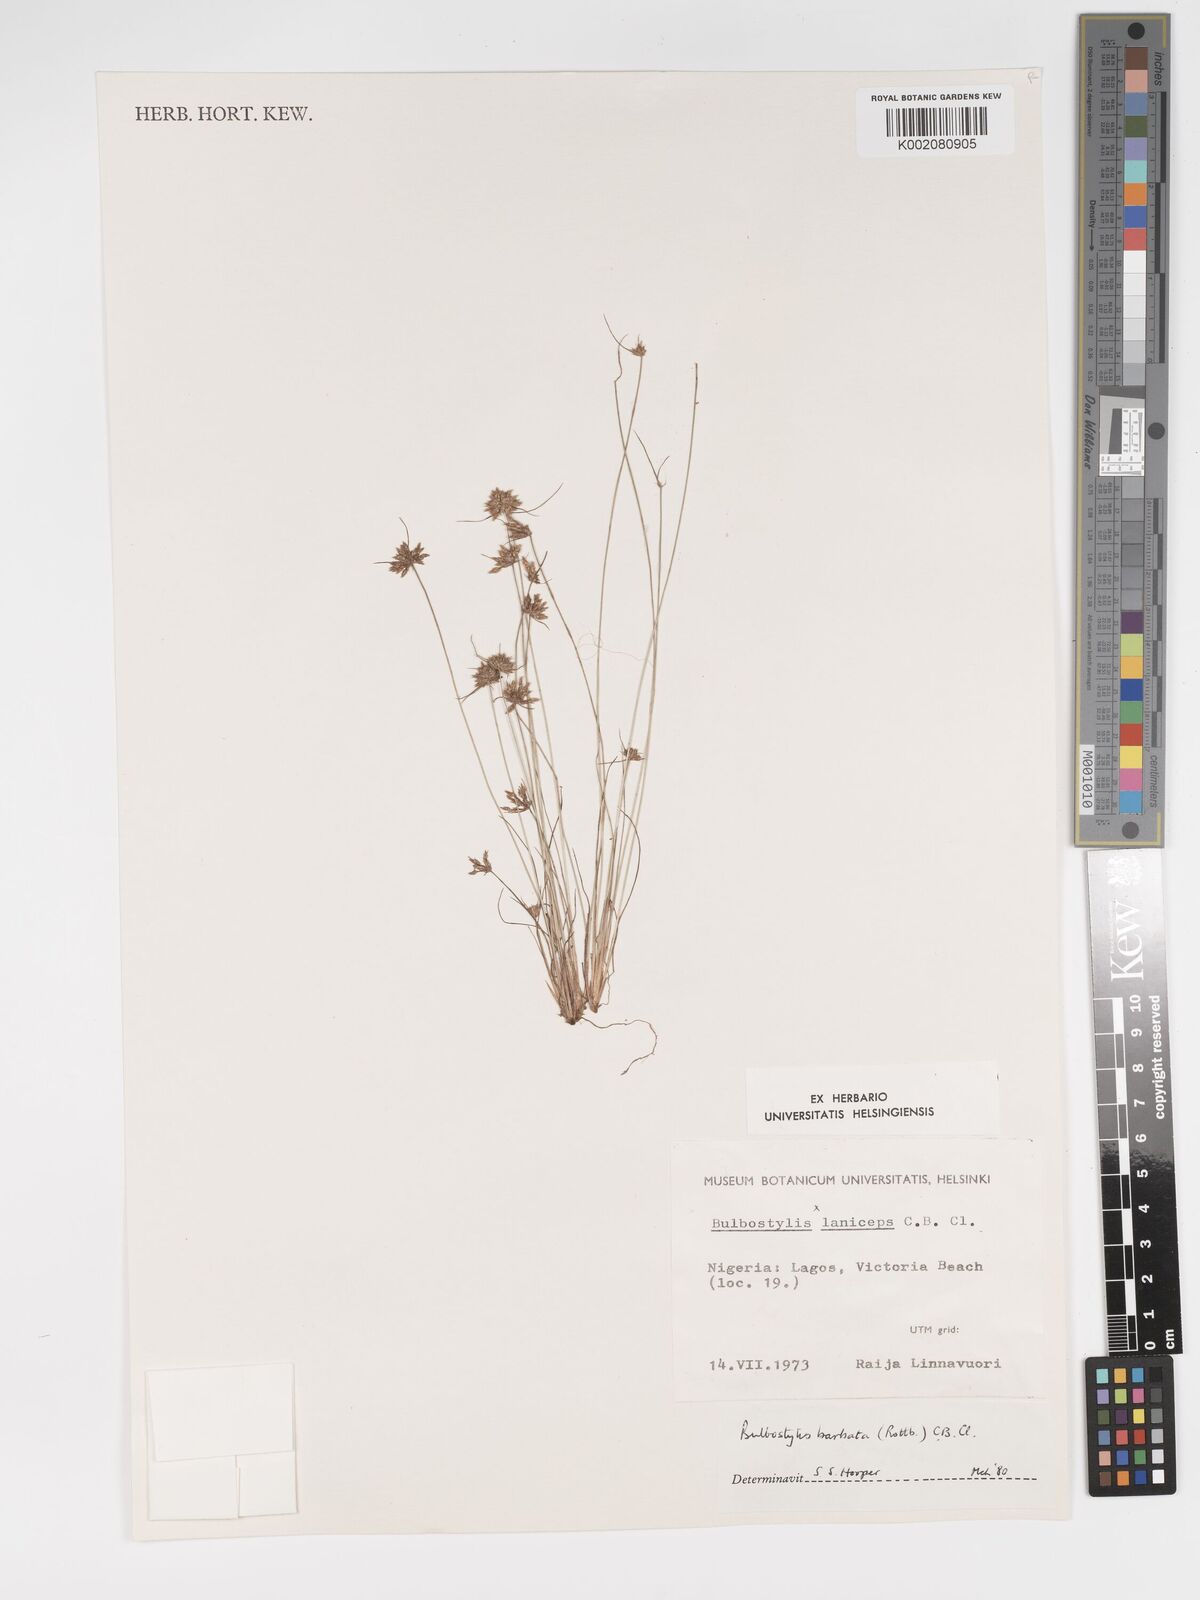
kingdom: Plantae
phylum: Tracheophyta
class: Liliopsida
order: Poales
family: Cyperaceae
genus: Bulbostylis
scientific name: Bulbostylis barbata
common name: Watergrass
